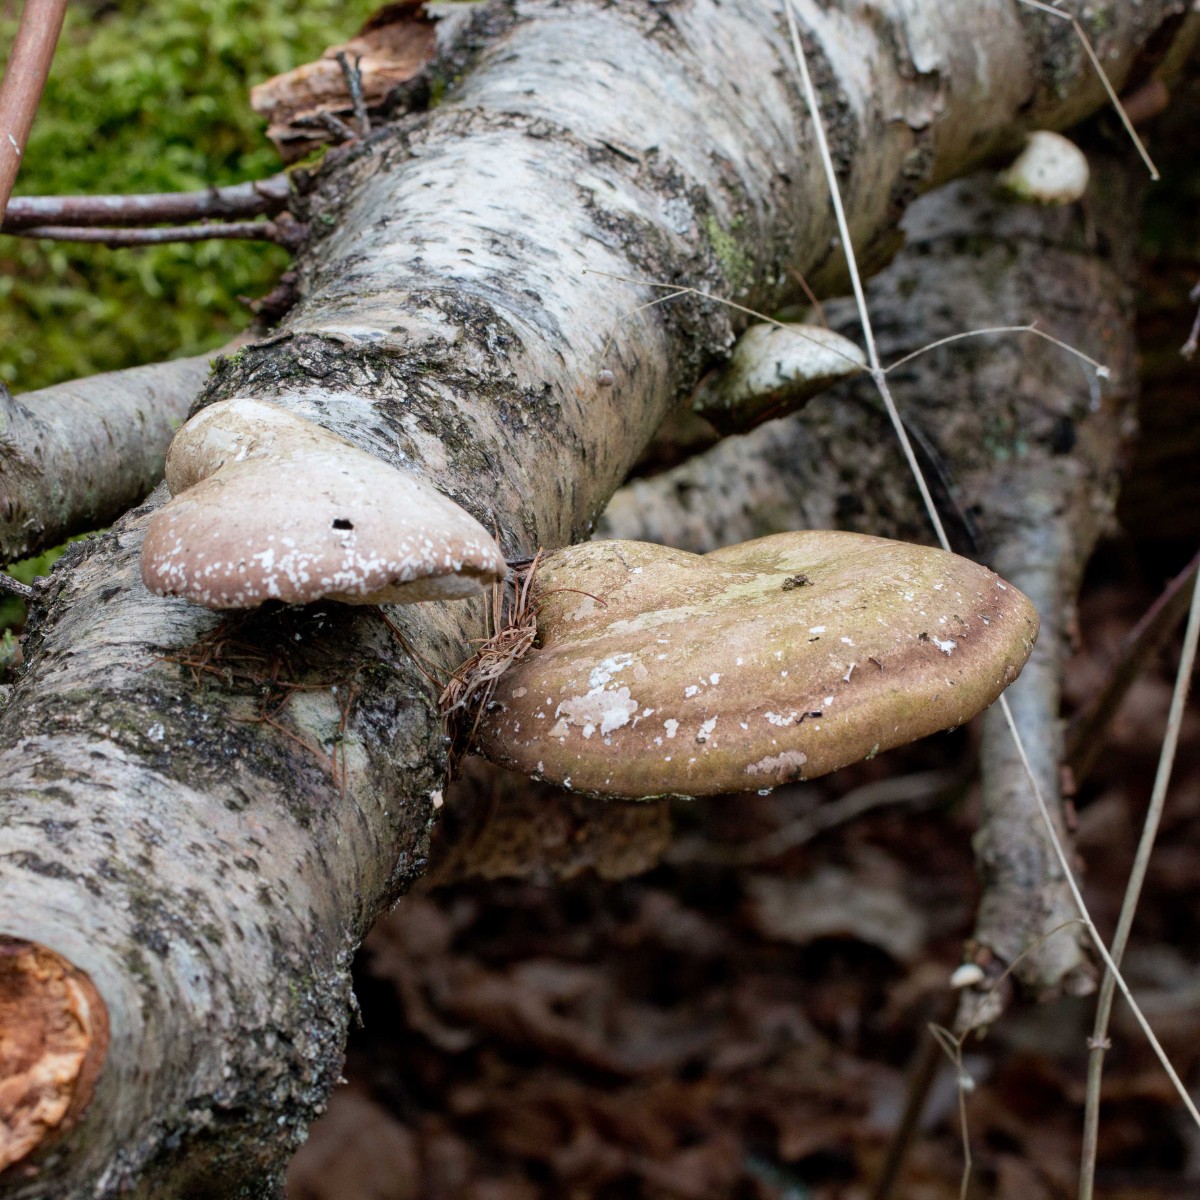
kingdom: Fungi
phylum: Basidiomycota
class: Agaricomycetes
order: Polyporales
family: Fomitopsidaceae
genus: Fomitopsis
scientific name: Fomitopsis betulina
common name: birkeporesvamp
